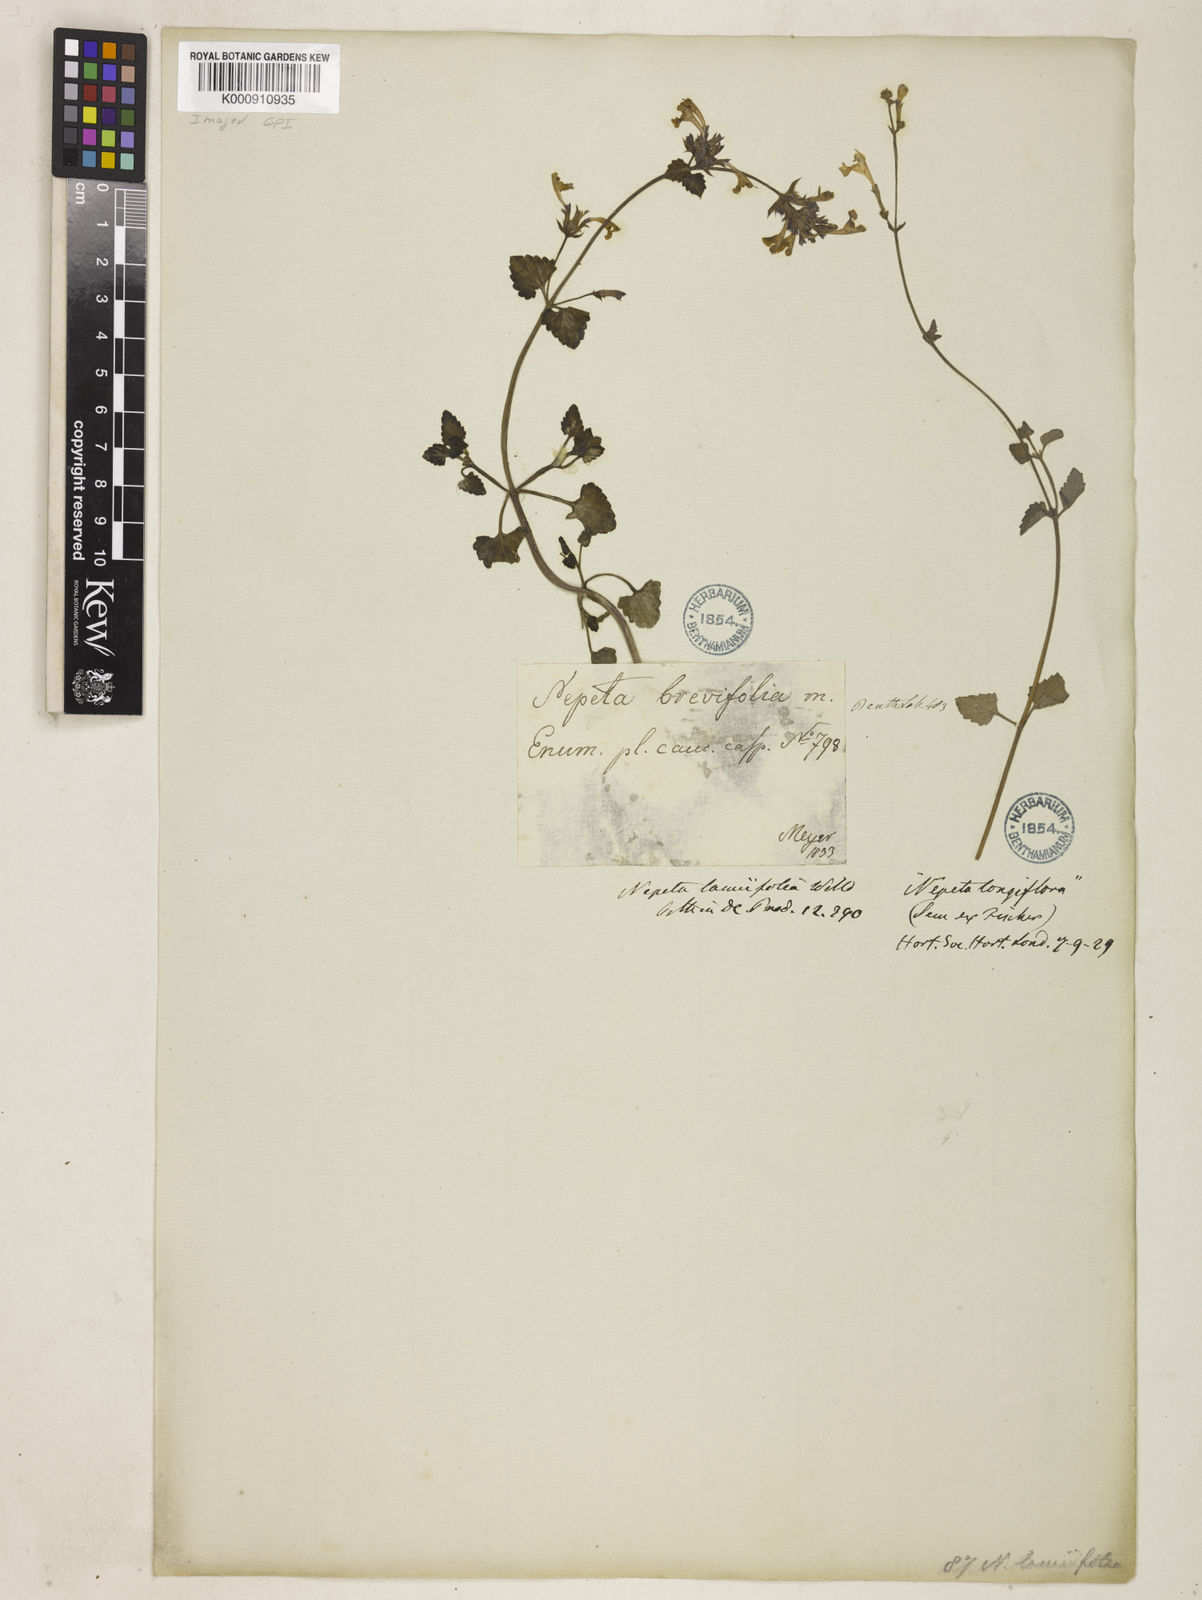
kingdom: Plantae
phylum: Tracheophyta
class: Magnoliopsida
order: Lamiales
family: Lamiaceae
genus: Nepeta
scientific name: Nepeta lamiifolia
